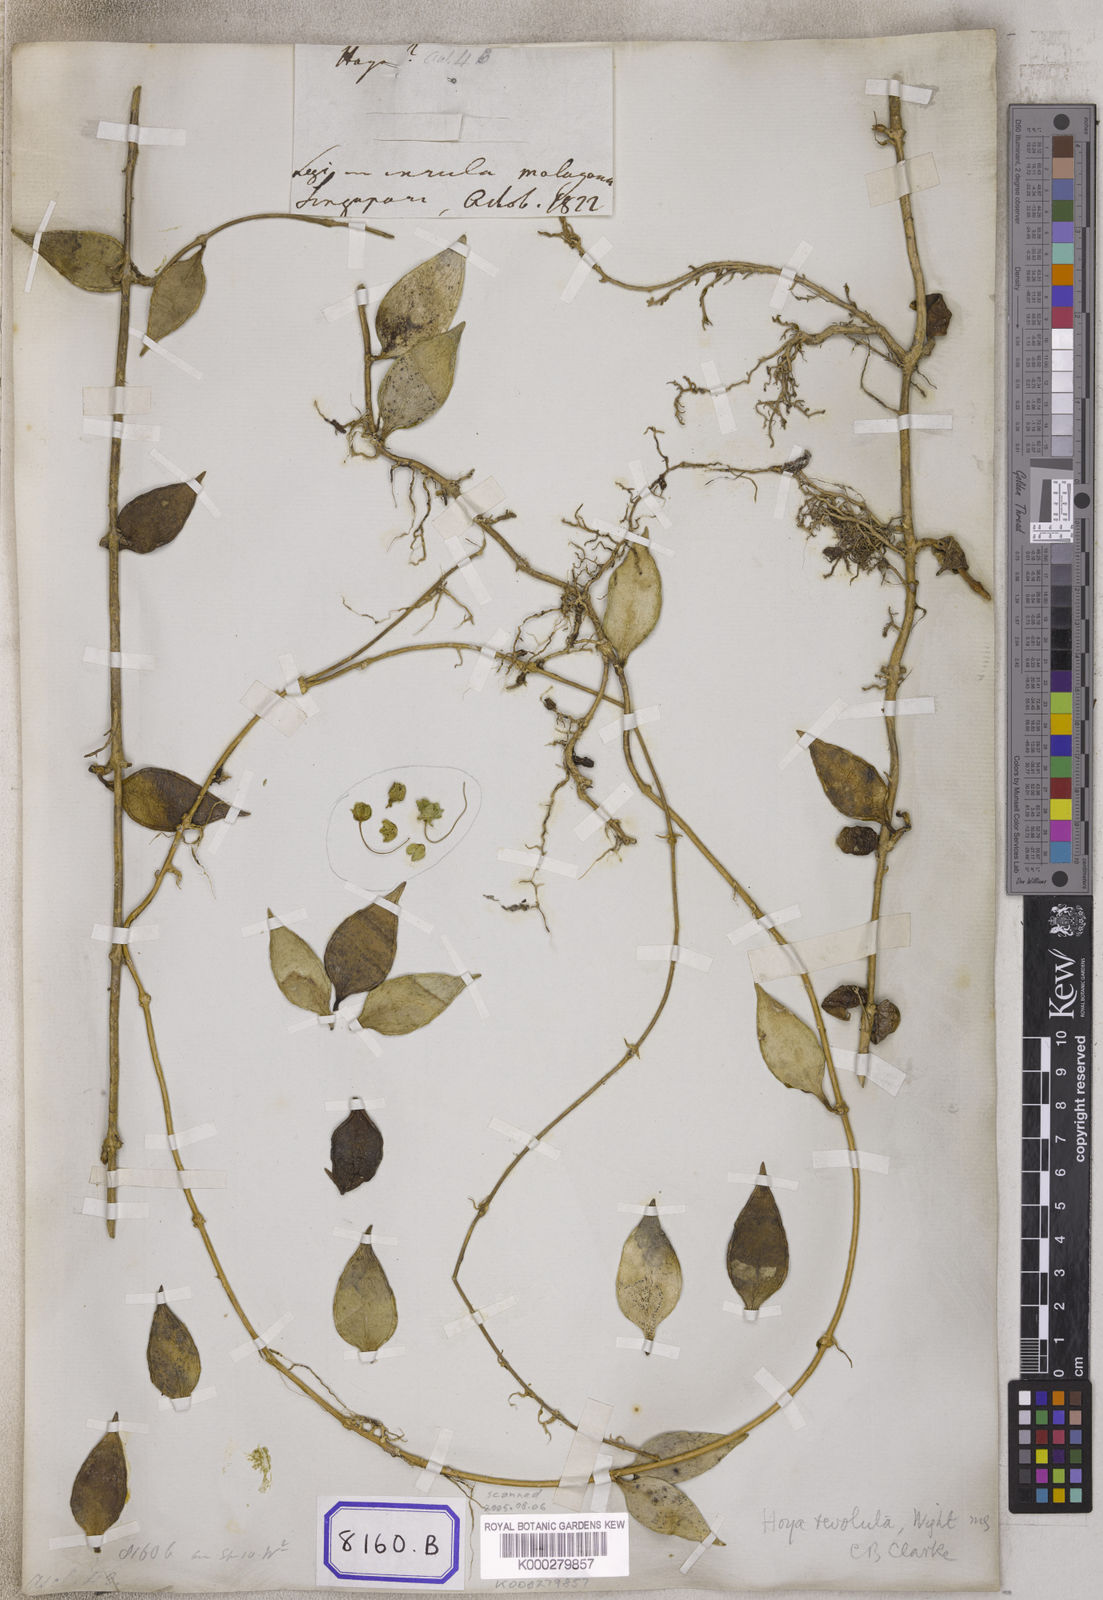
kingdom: Plantae
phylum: Tracheophyta
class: Magnoliopsida
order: Gentianales
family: Apocynaceae
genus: Hoya
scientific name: Hoya revoluta
